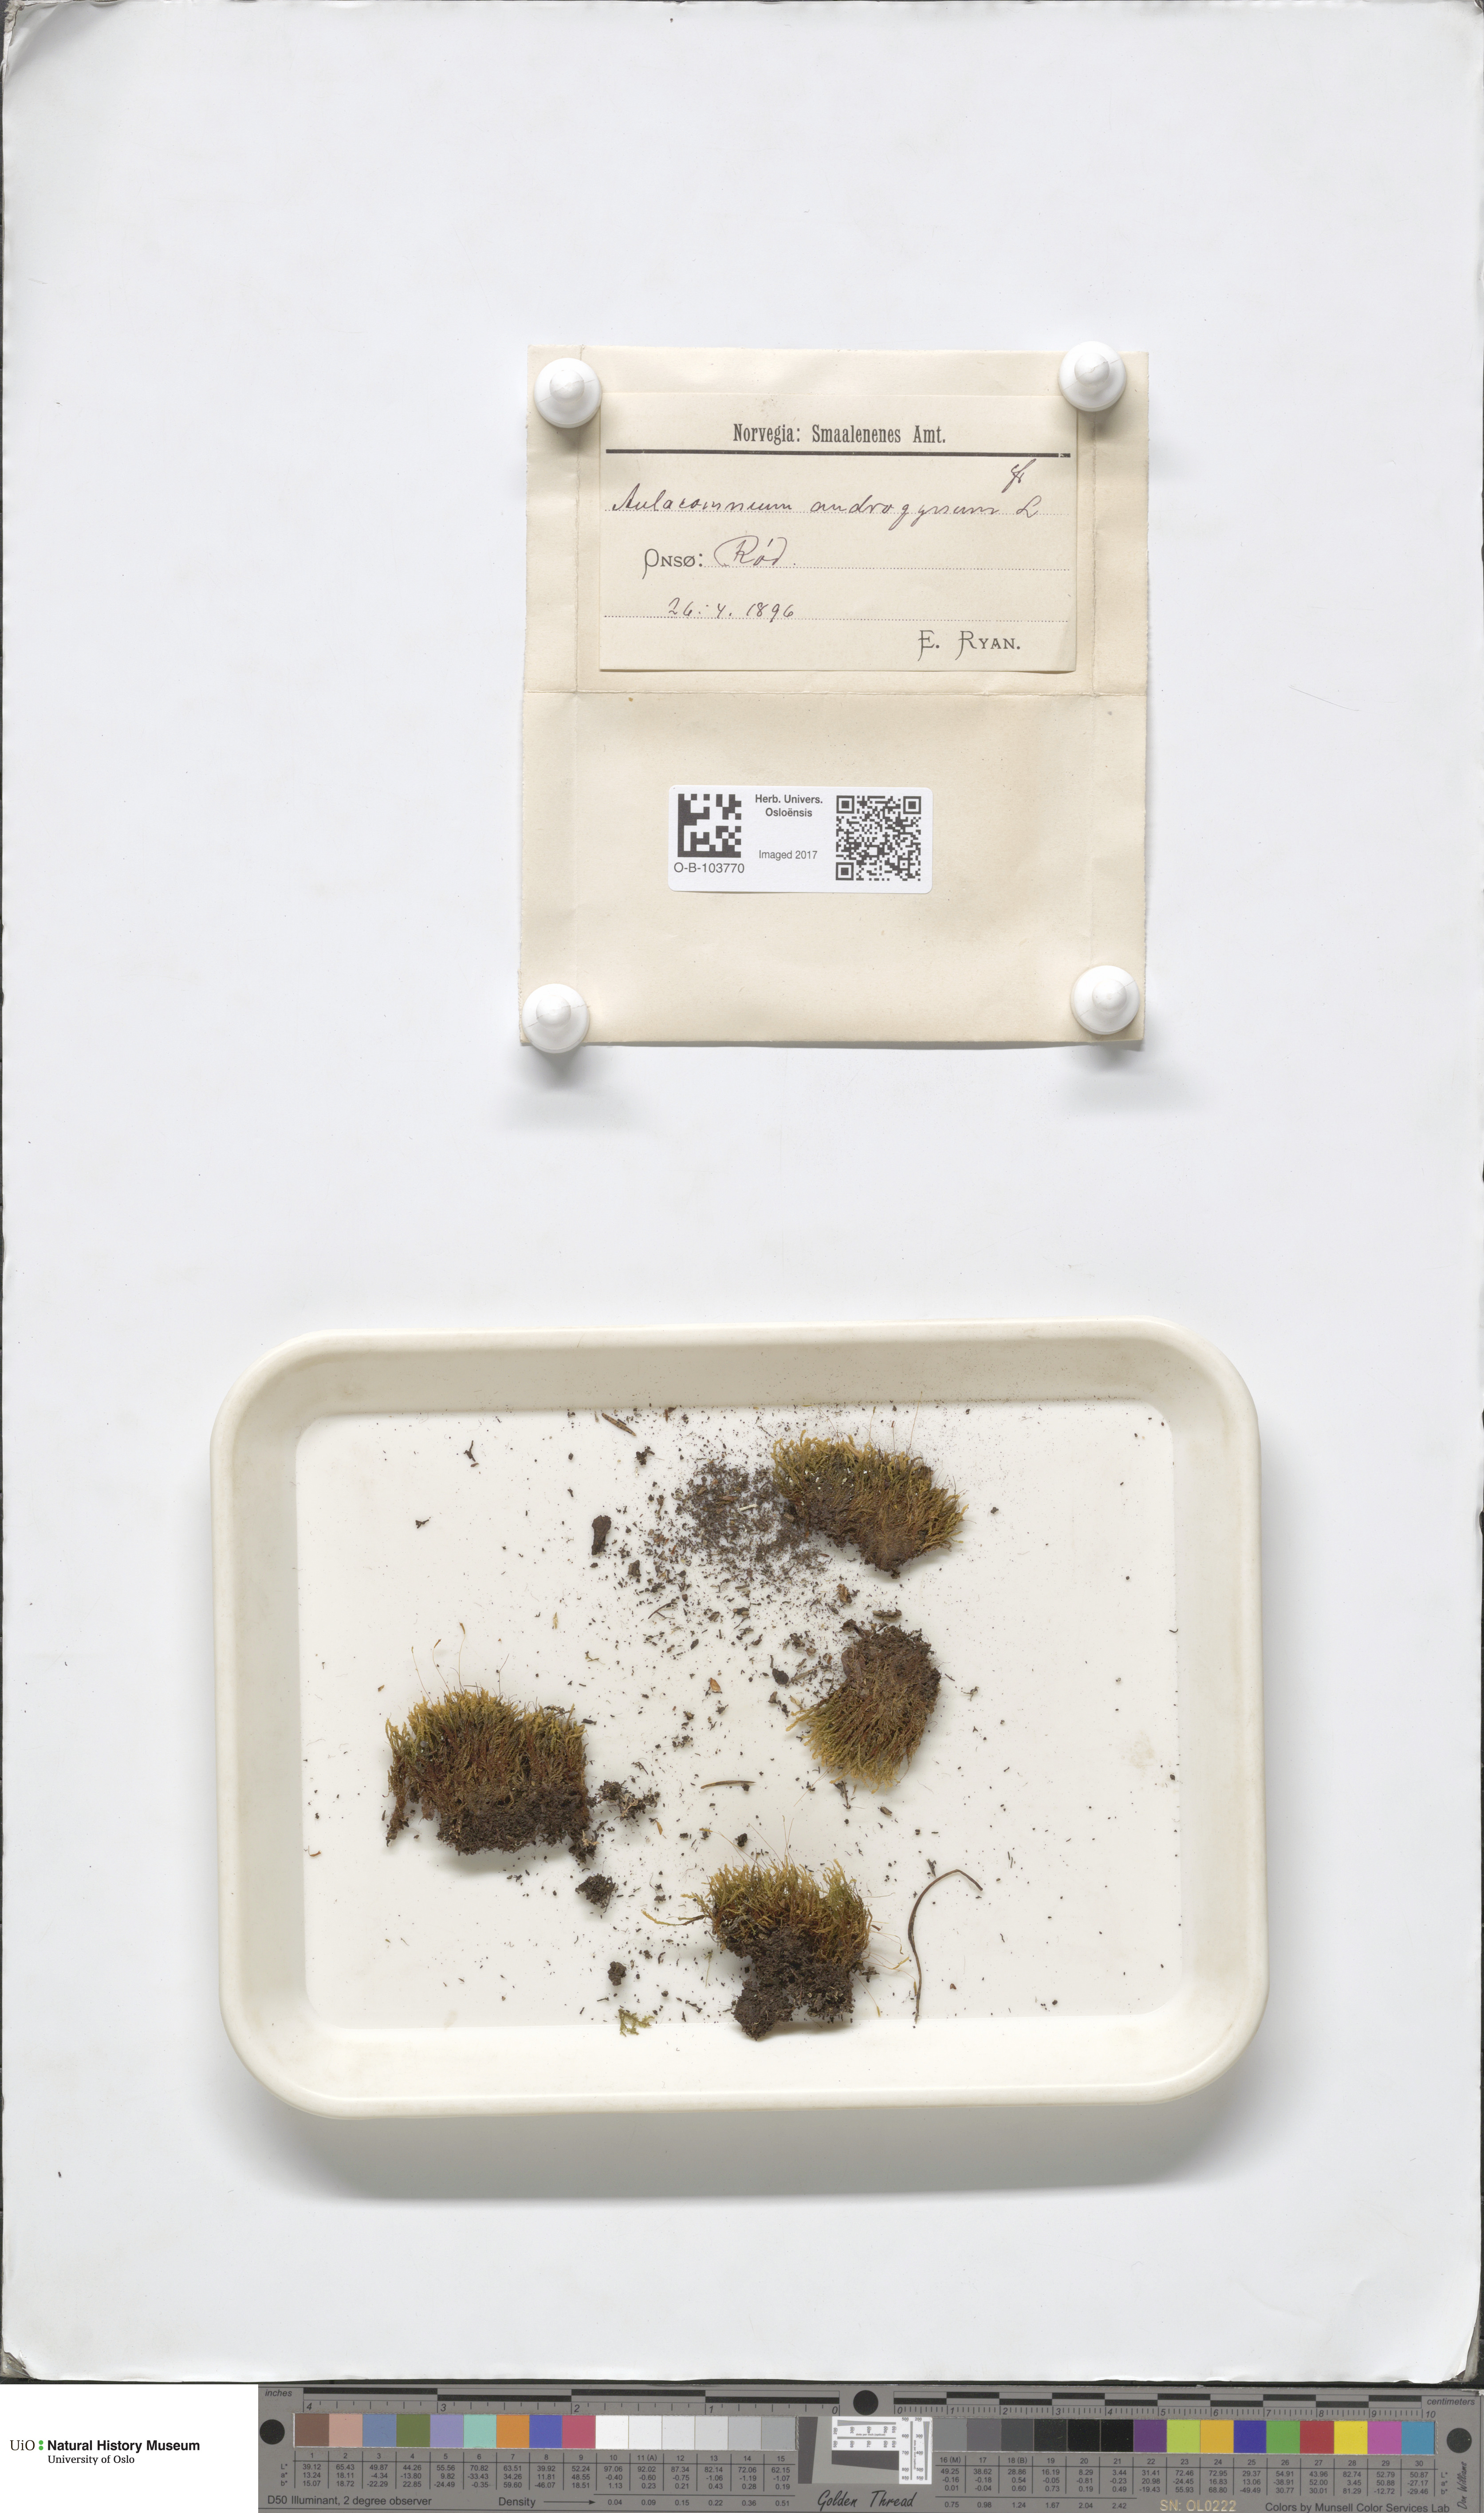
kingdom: Plantae
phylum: Bryophyta
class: Bryopsida
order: Aulacomniales
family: Aulacomniaceae
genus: Aulacomnium
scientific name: Aulacomnium androgynum
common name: Little groove moss
